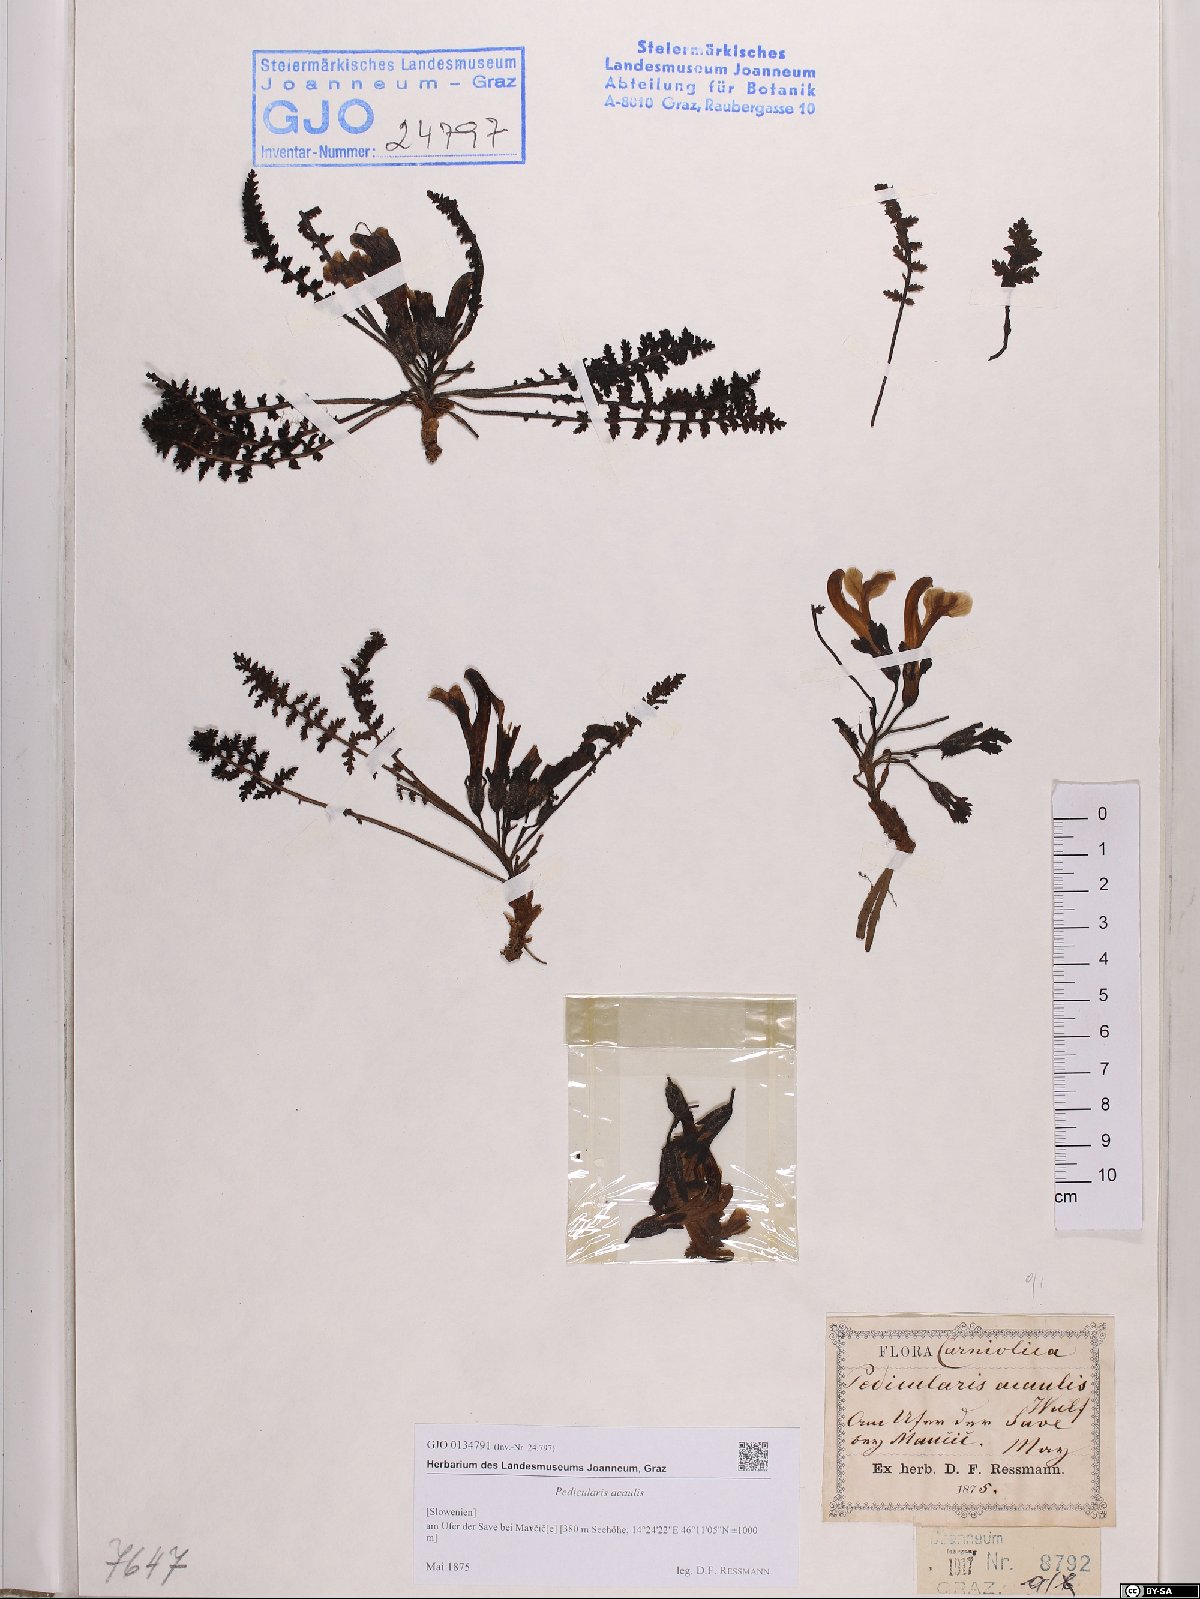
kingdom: Plantae
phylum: Tracheophyta
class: Magnoliopsida
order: Lamiales
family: Orobanchaceae
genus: Pedicularis
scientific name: Pedicularis acaulis
